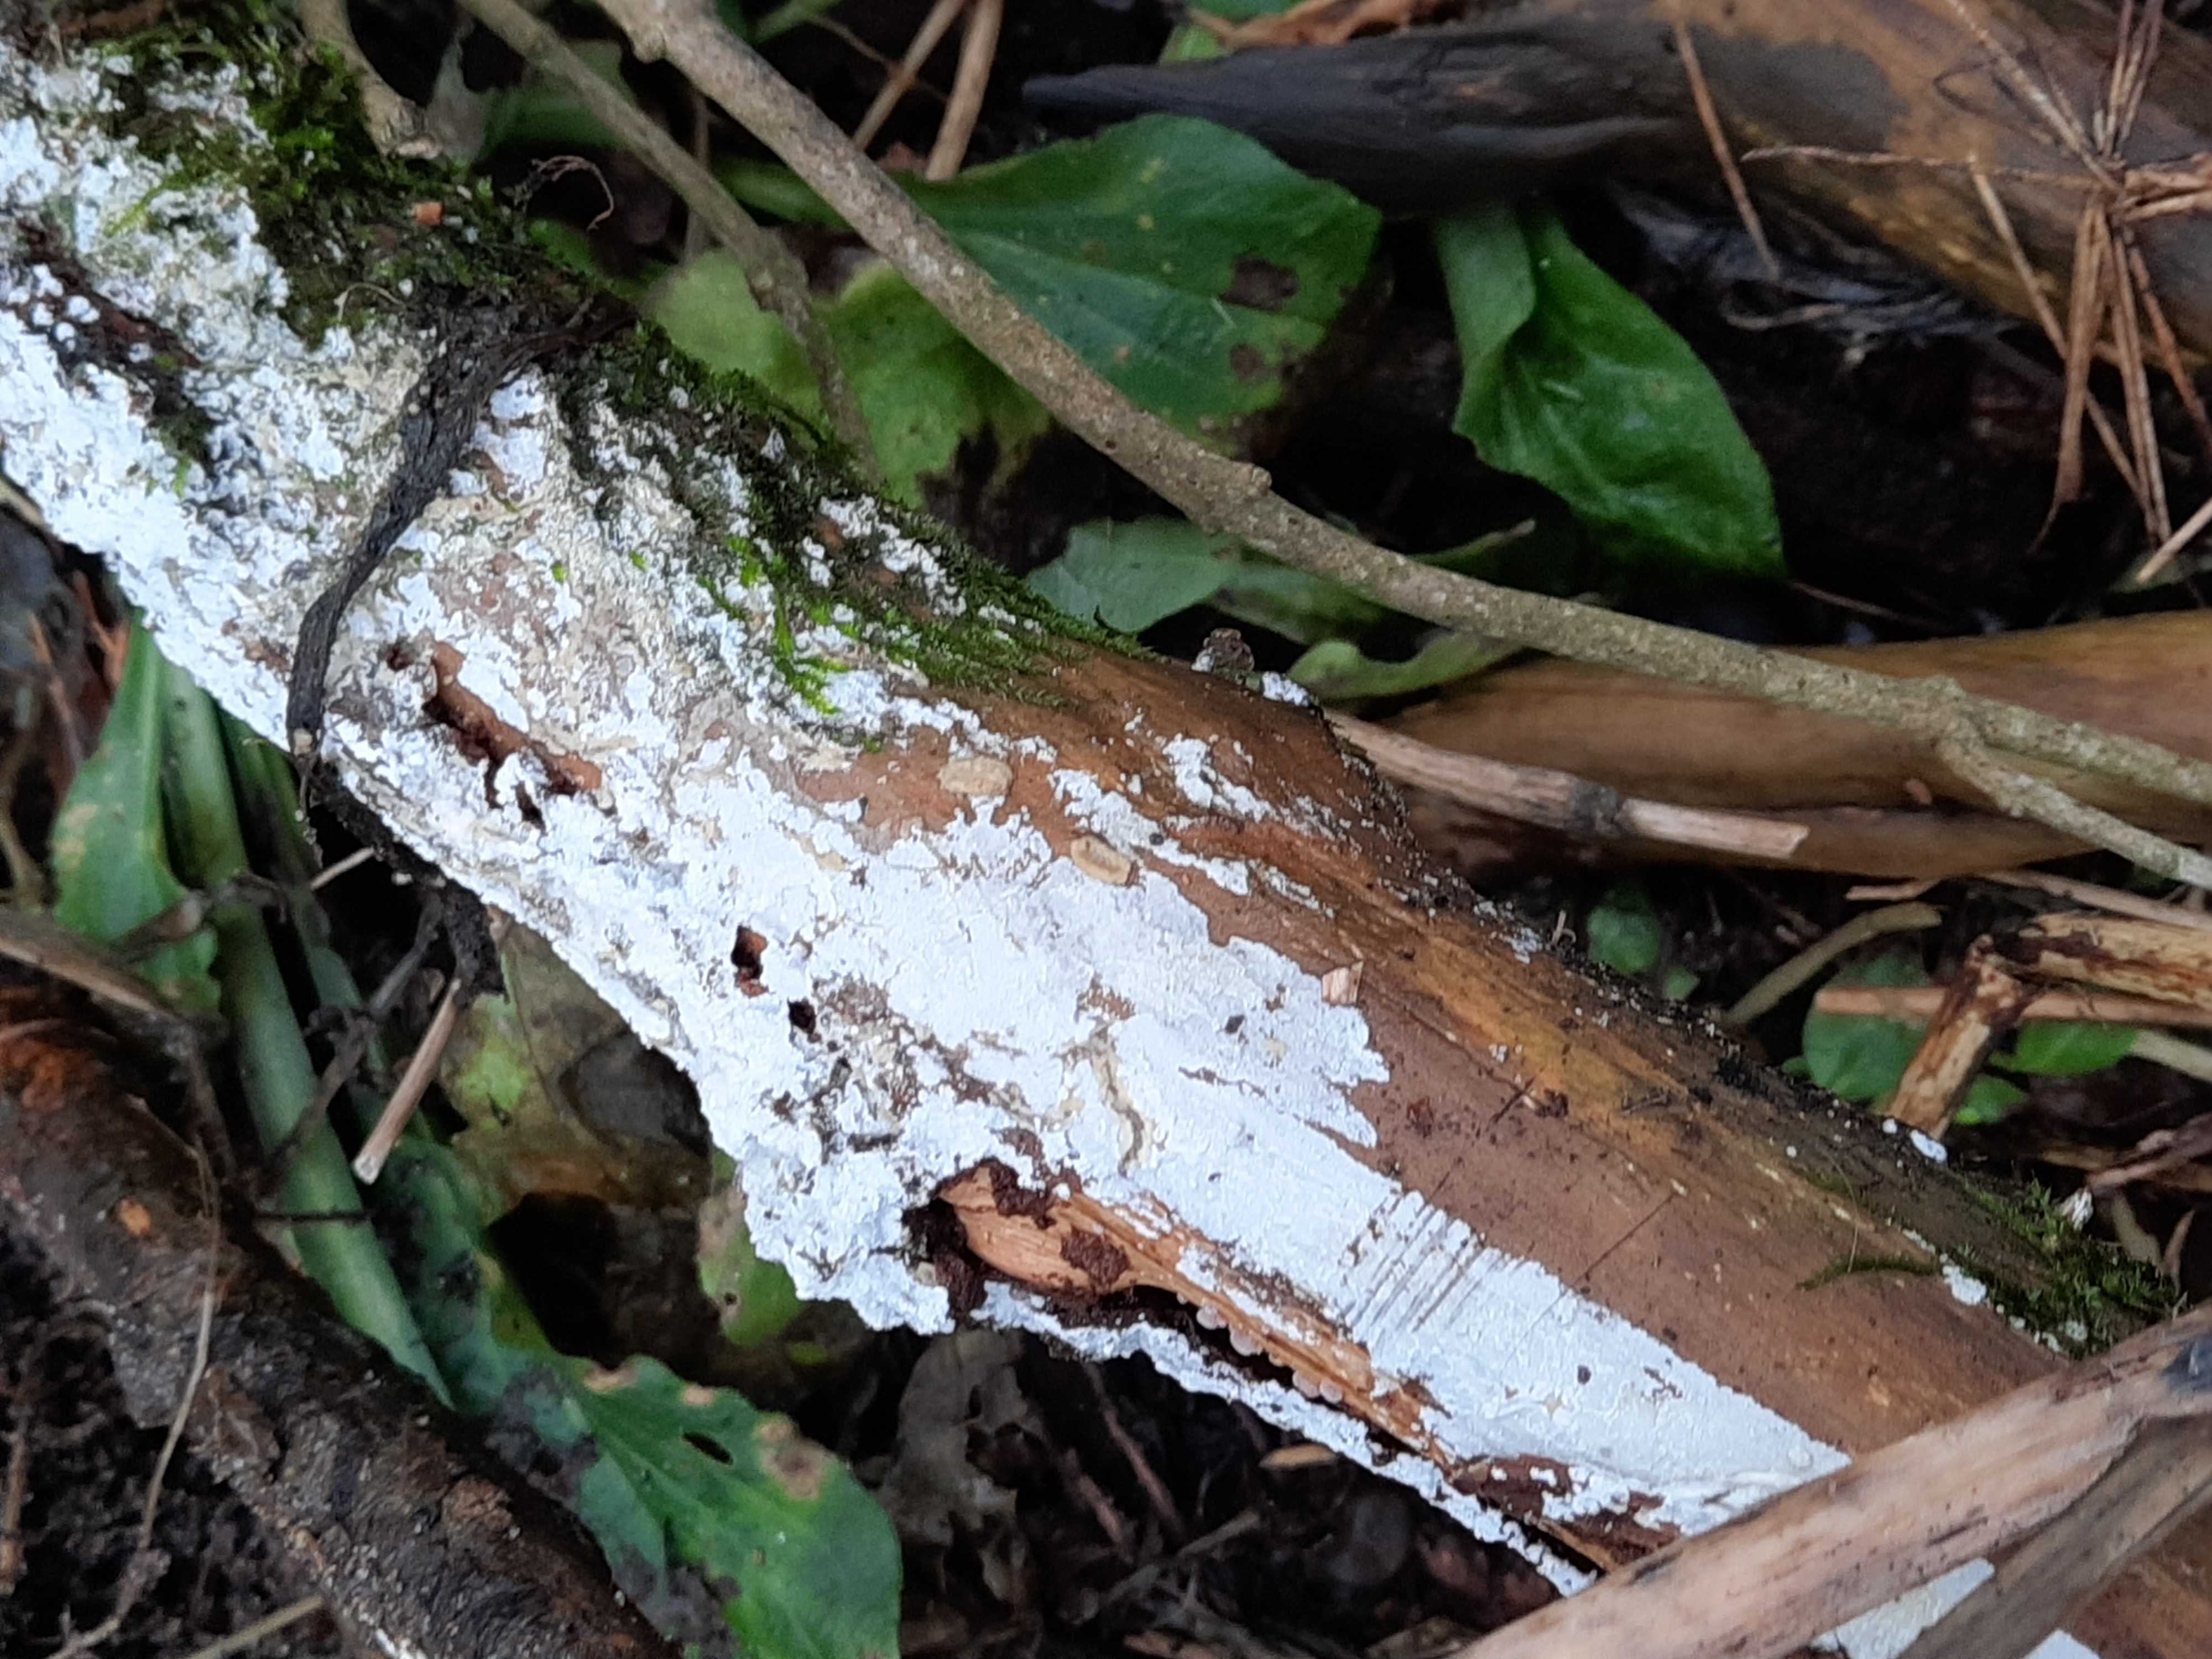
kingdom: Fungi
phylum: Basidiomycota
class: Agaricomycetes
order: Corticiales
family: Corticiaceae
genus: Lyomyces
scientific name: Lyomyces sambuci
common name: almindelig hyldehinde
